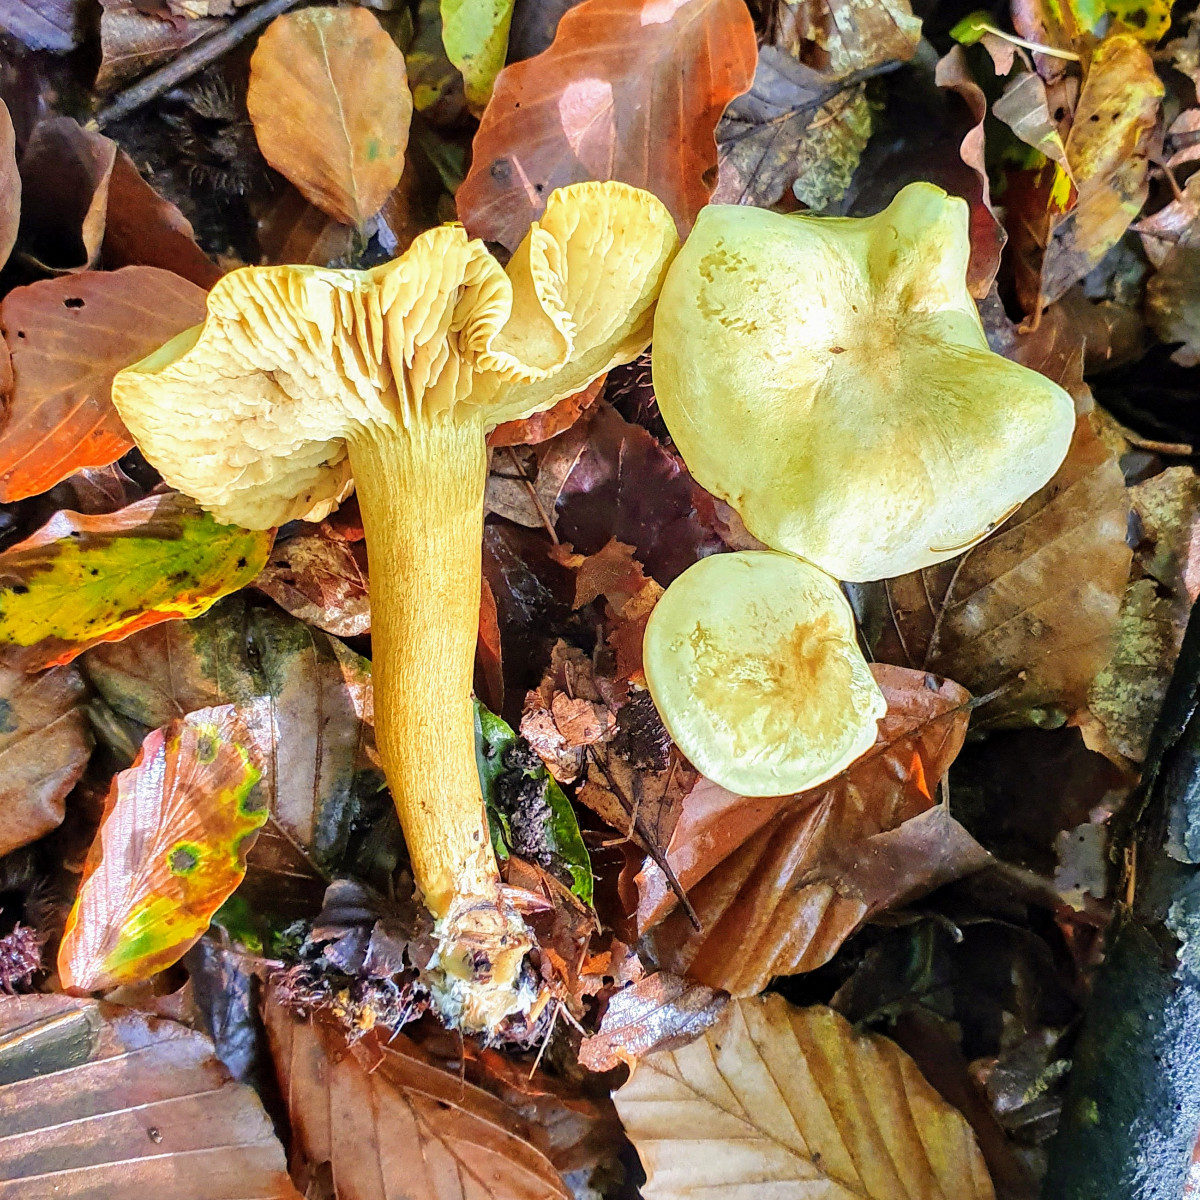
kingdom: Fungi
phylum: Basidiomycota
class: Agaricomycetes
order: Agaricales
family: Tricholomataceae
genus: Tricholoma
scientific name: Tricholoma sulphureum
